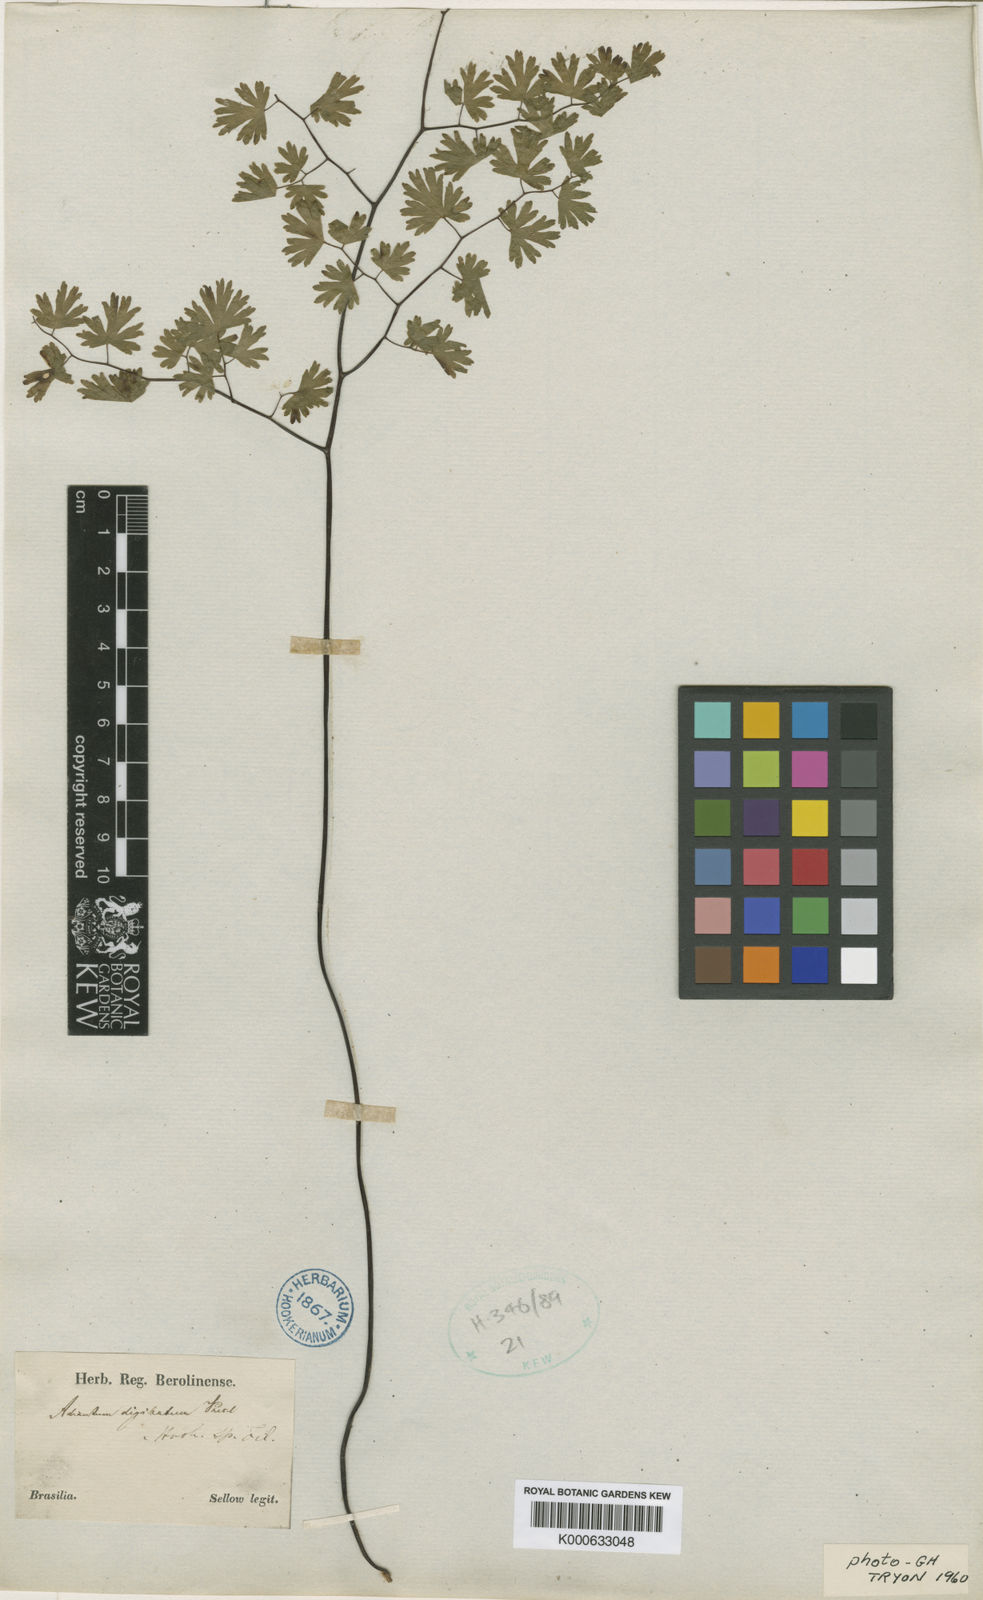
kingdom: Plantae
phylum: Tracheophyta
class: Polypodiopsida
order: Polypodiales
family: Pteridaceae
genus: Adiantum
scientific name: Adiantum digitatum
